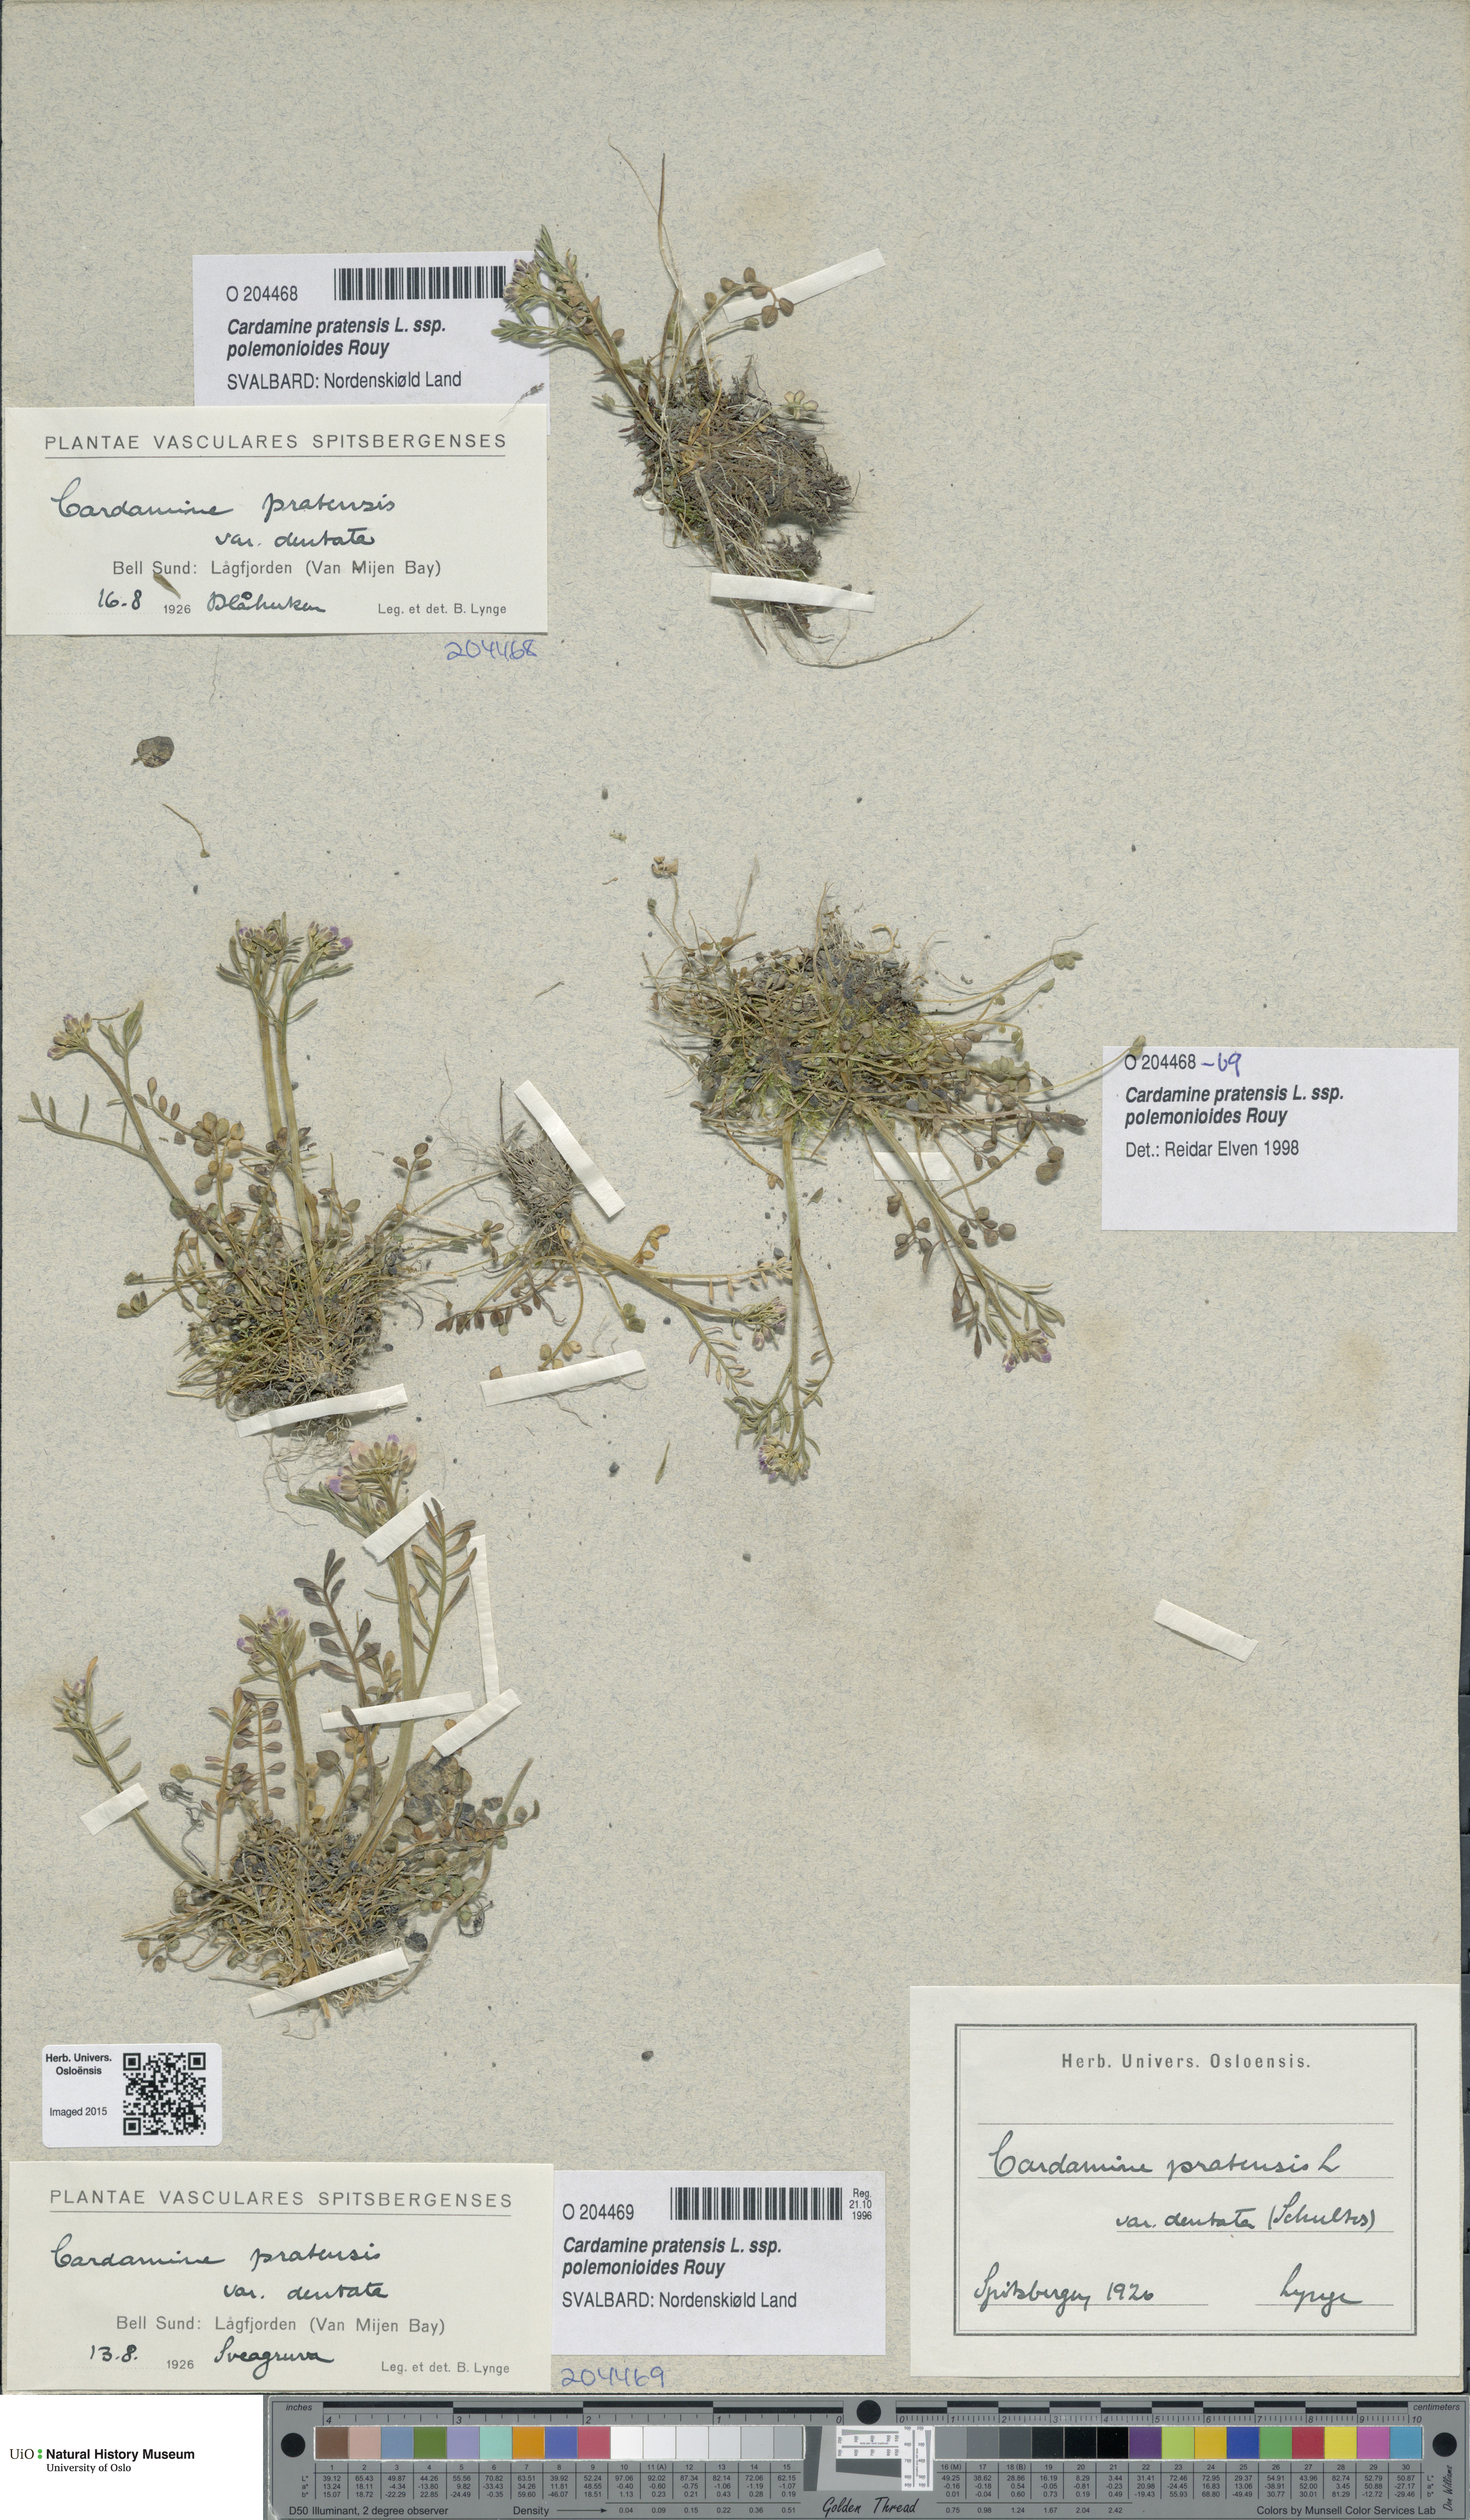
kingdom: Plantae
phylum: Tracheophyta
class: Magnoliopsida
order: Brassicales
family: Brassicaceae
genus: Cardamine
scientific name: Cardamine nymanii
